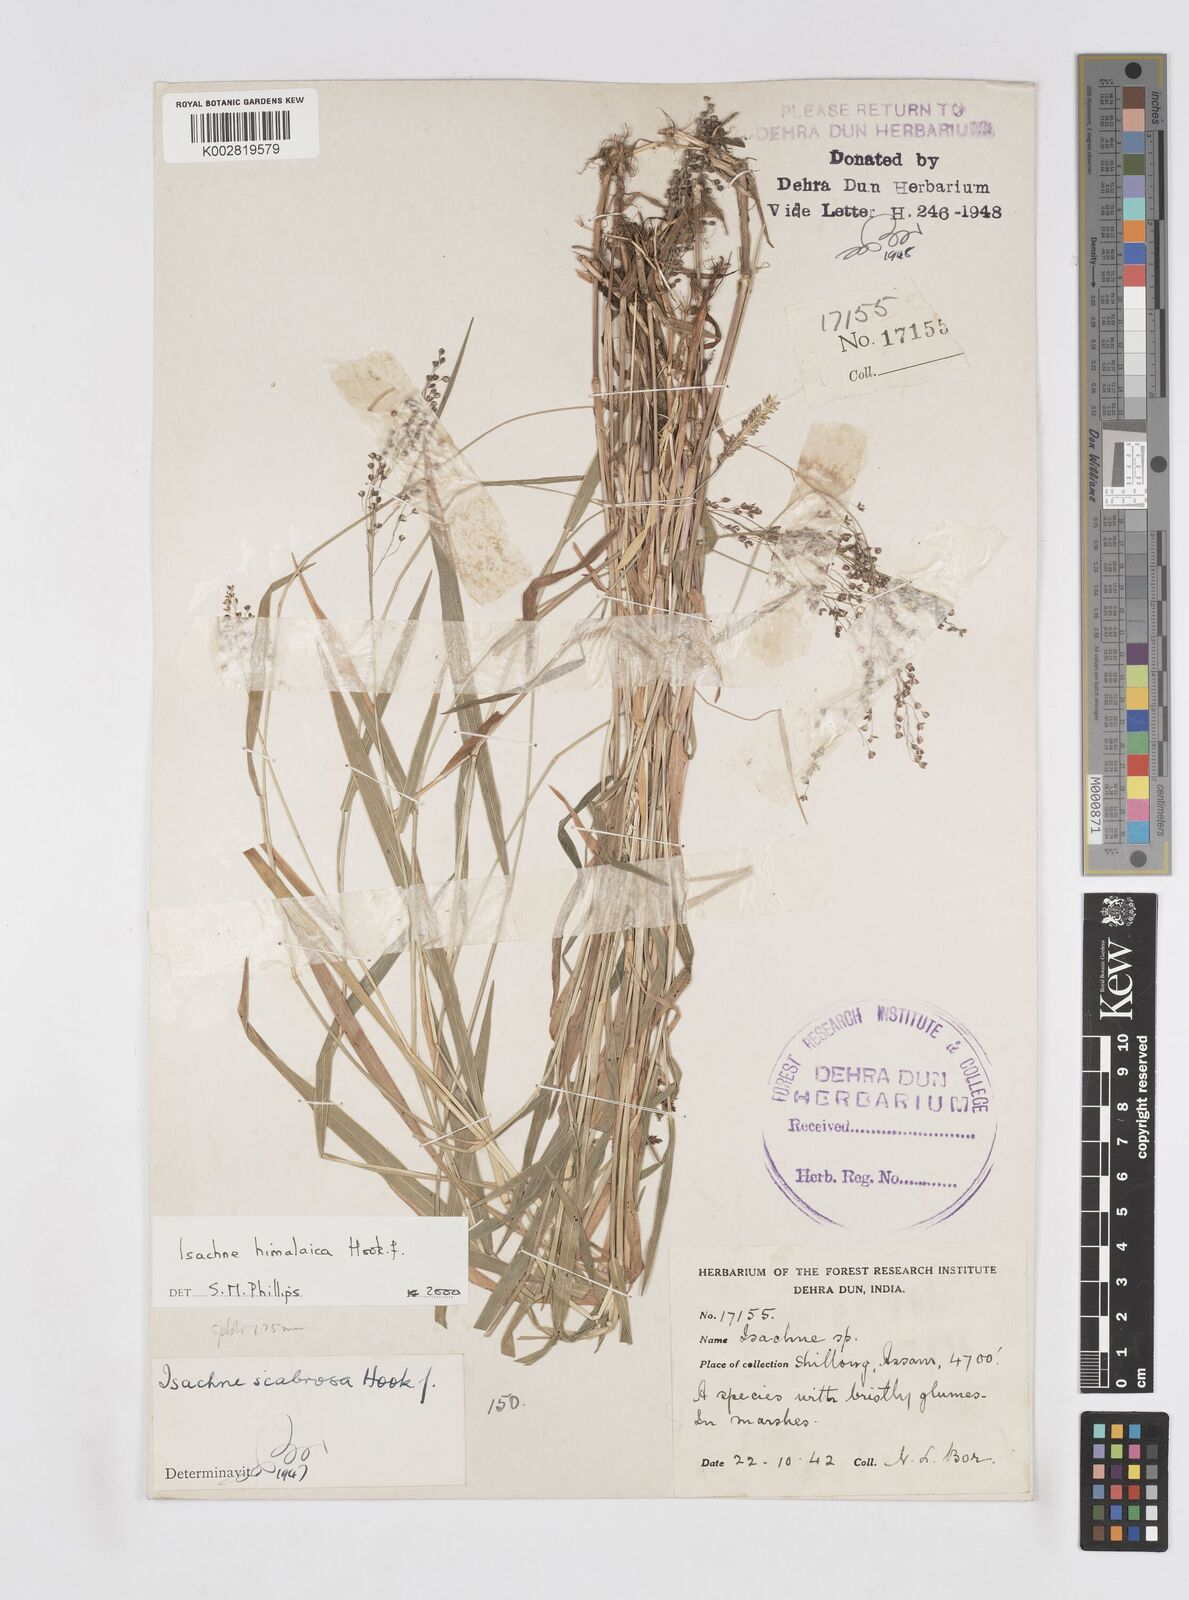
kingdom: Plantae
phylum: Tracheophyta
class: Liliopsida
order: Poales
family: Poaceae
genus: Isachne
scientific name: Isachne himalaica
